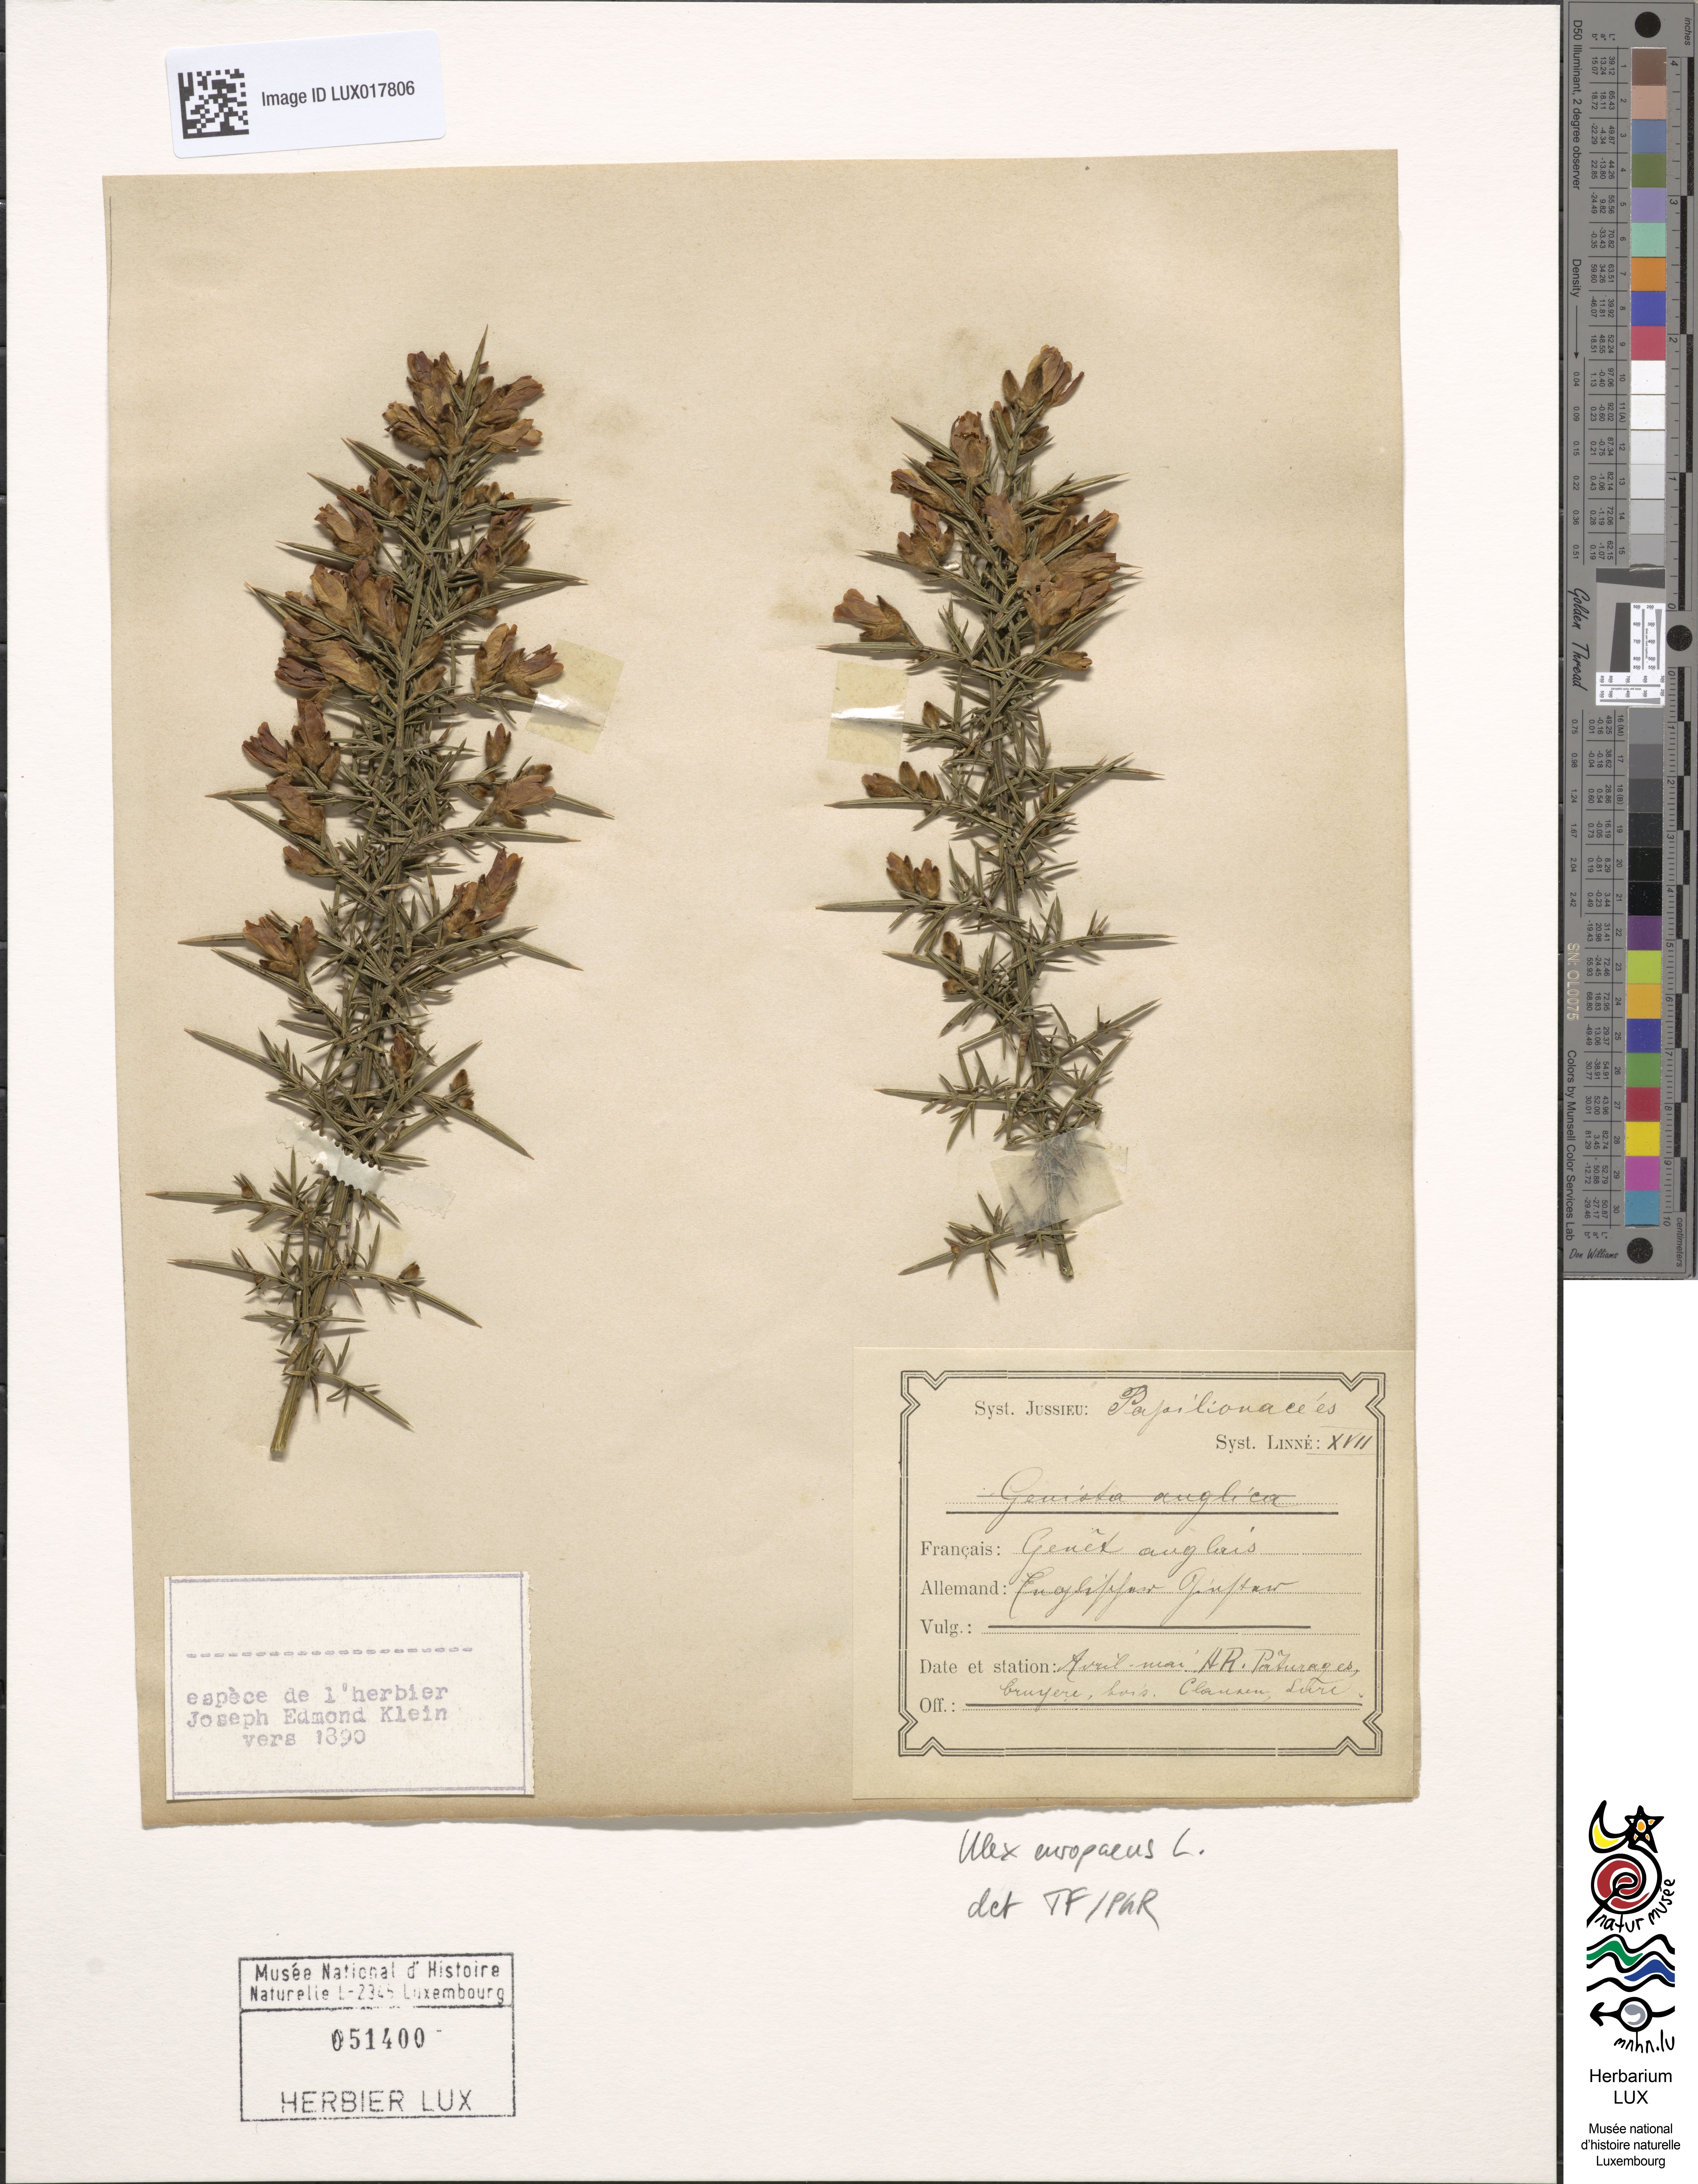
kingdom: Plantae
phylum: Tracheophyta
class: Magnoliopsida
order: Fabales
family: Fabaceae
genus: Ulex
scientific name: Ulex europaeus
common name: Common gorse
